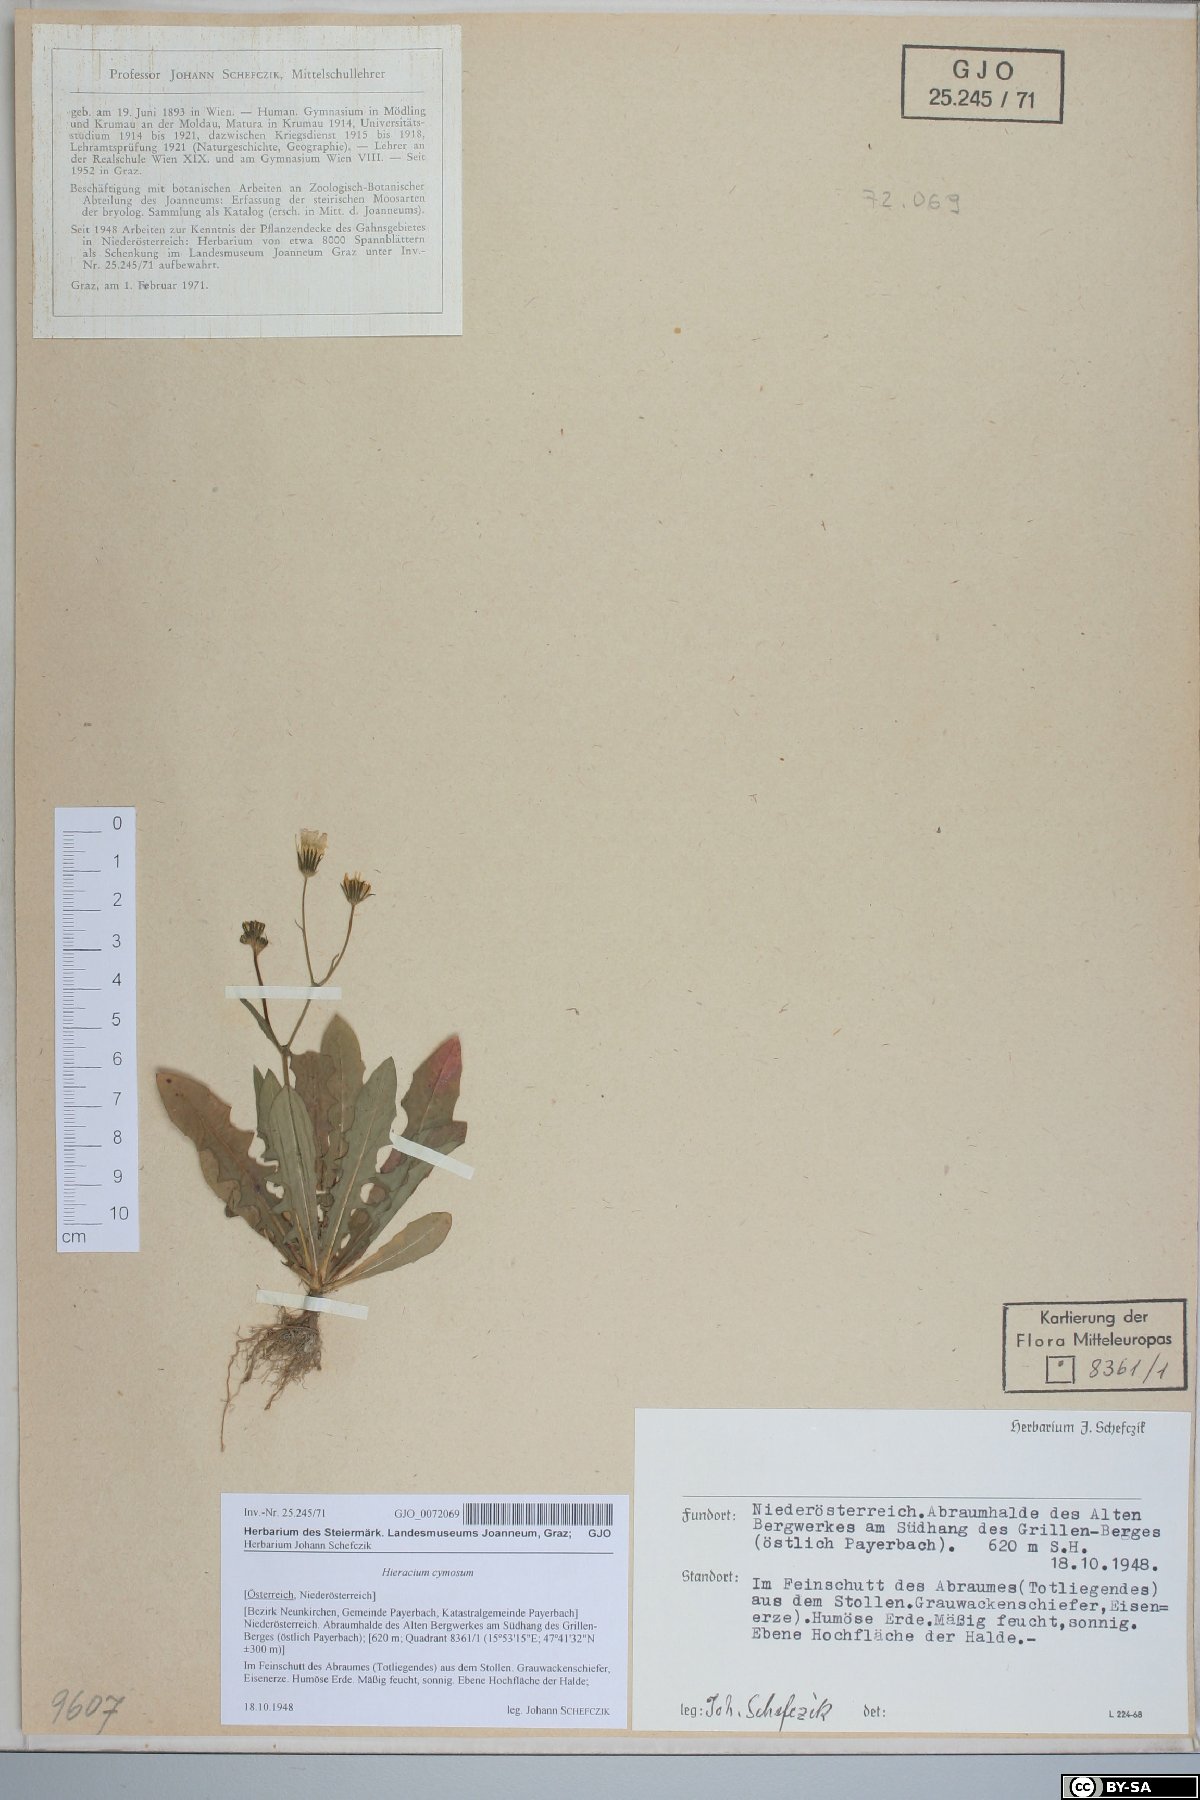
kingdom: Plantae
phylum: Tracheophyta
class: Magnoliopsida
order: Asterales
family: Asteraceae
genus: Pilosella
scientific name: Pilosella cymosa
